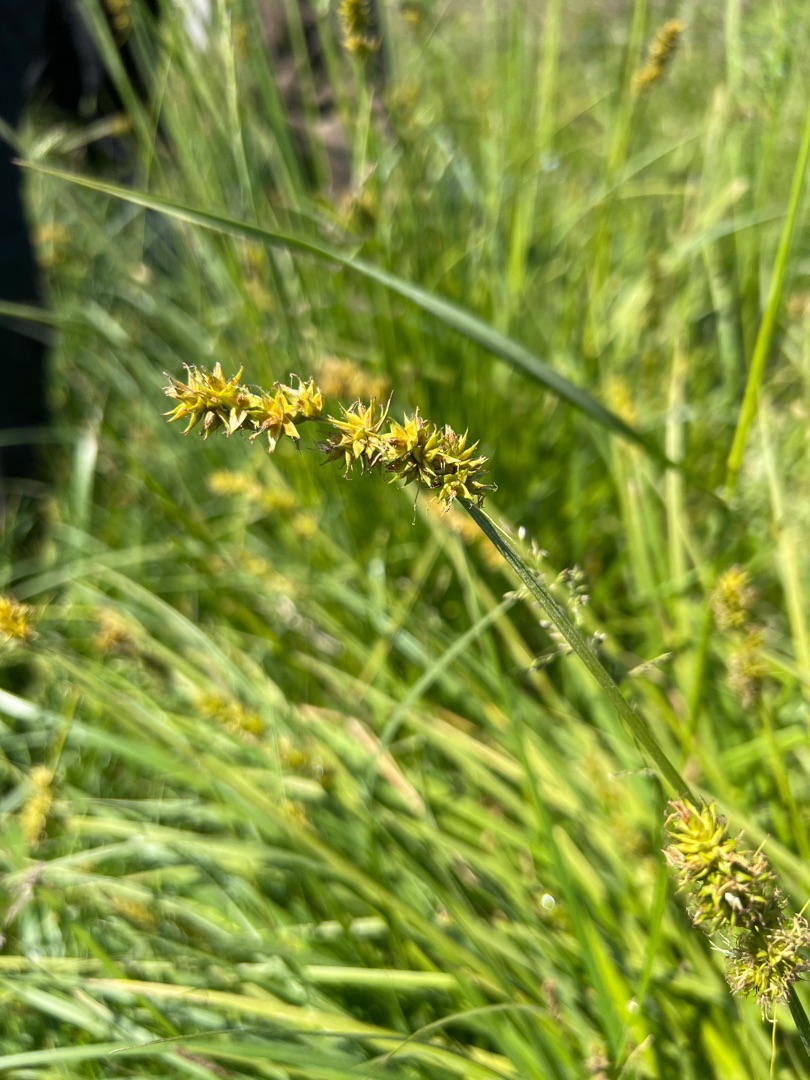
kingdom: Plantae
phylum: Tracheophyta
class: Liliopsida
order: Poales
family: Cyperaceae
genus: Carex
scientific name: Carex otrubae
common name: Sylt-star
